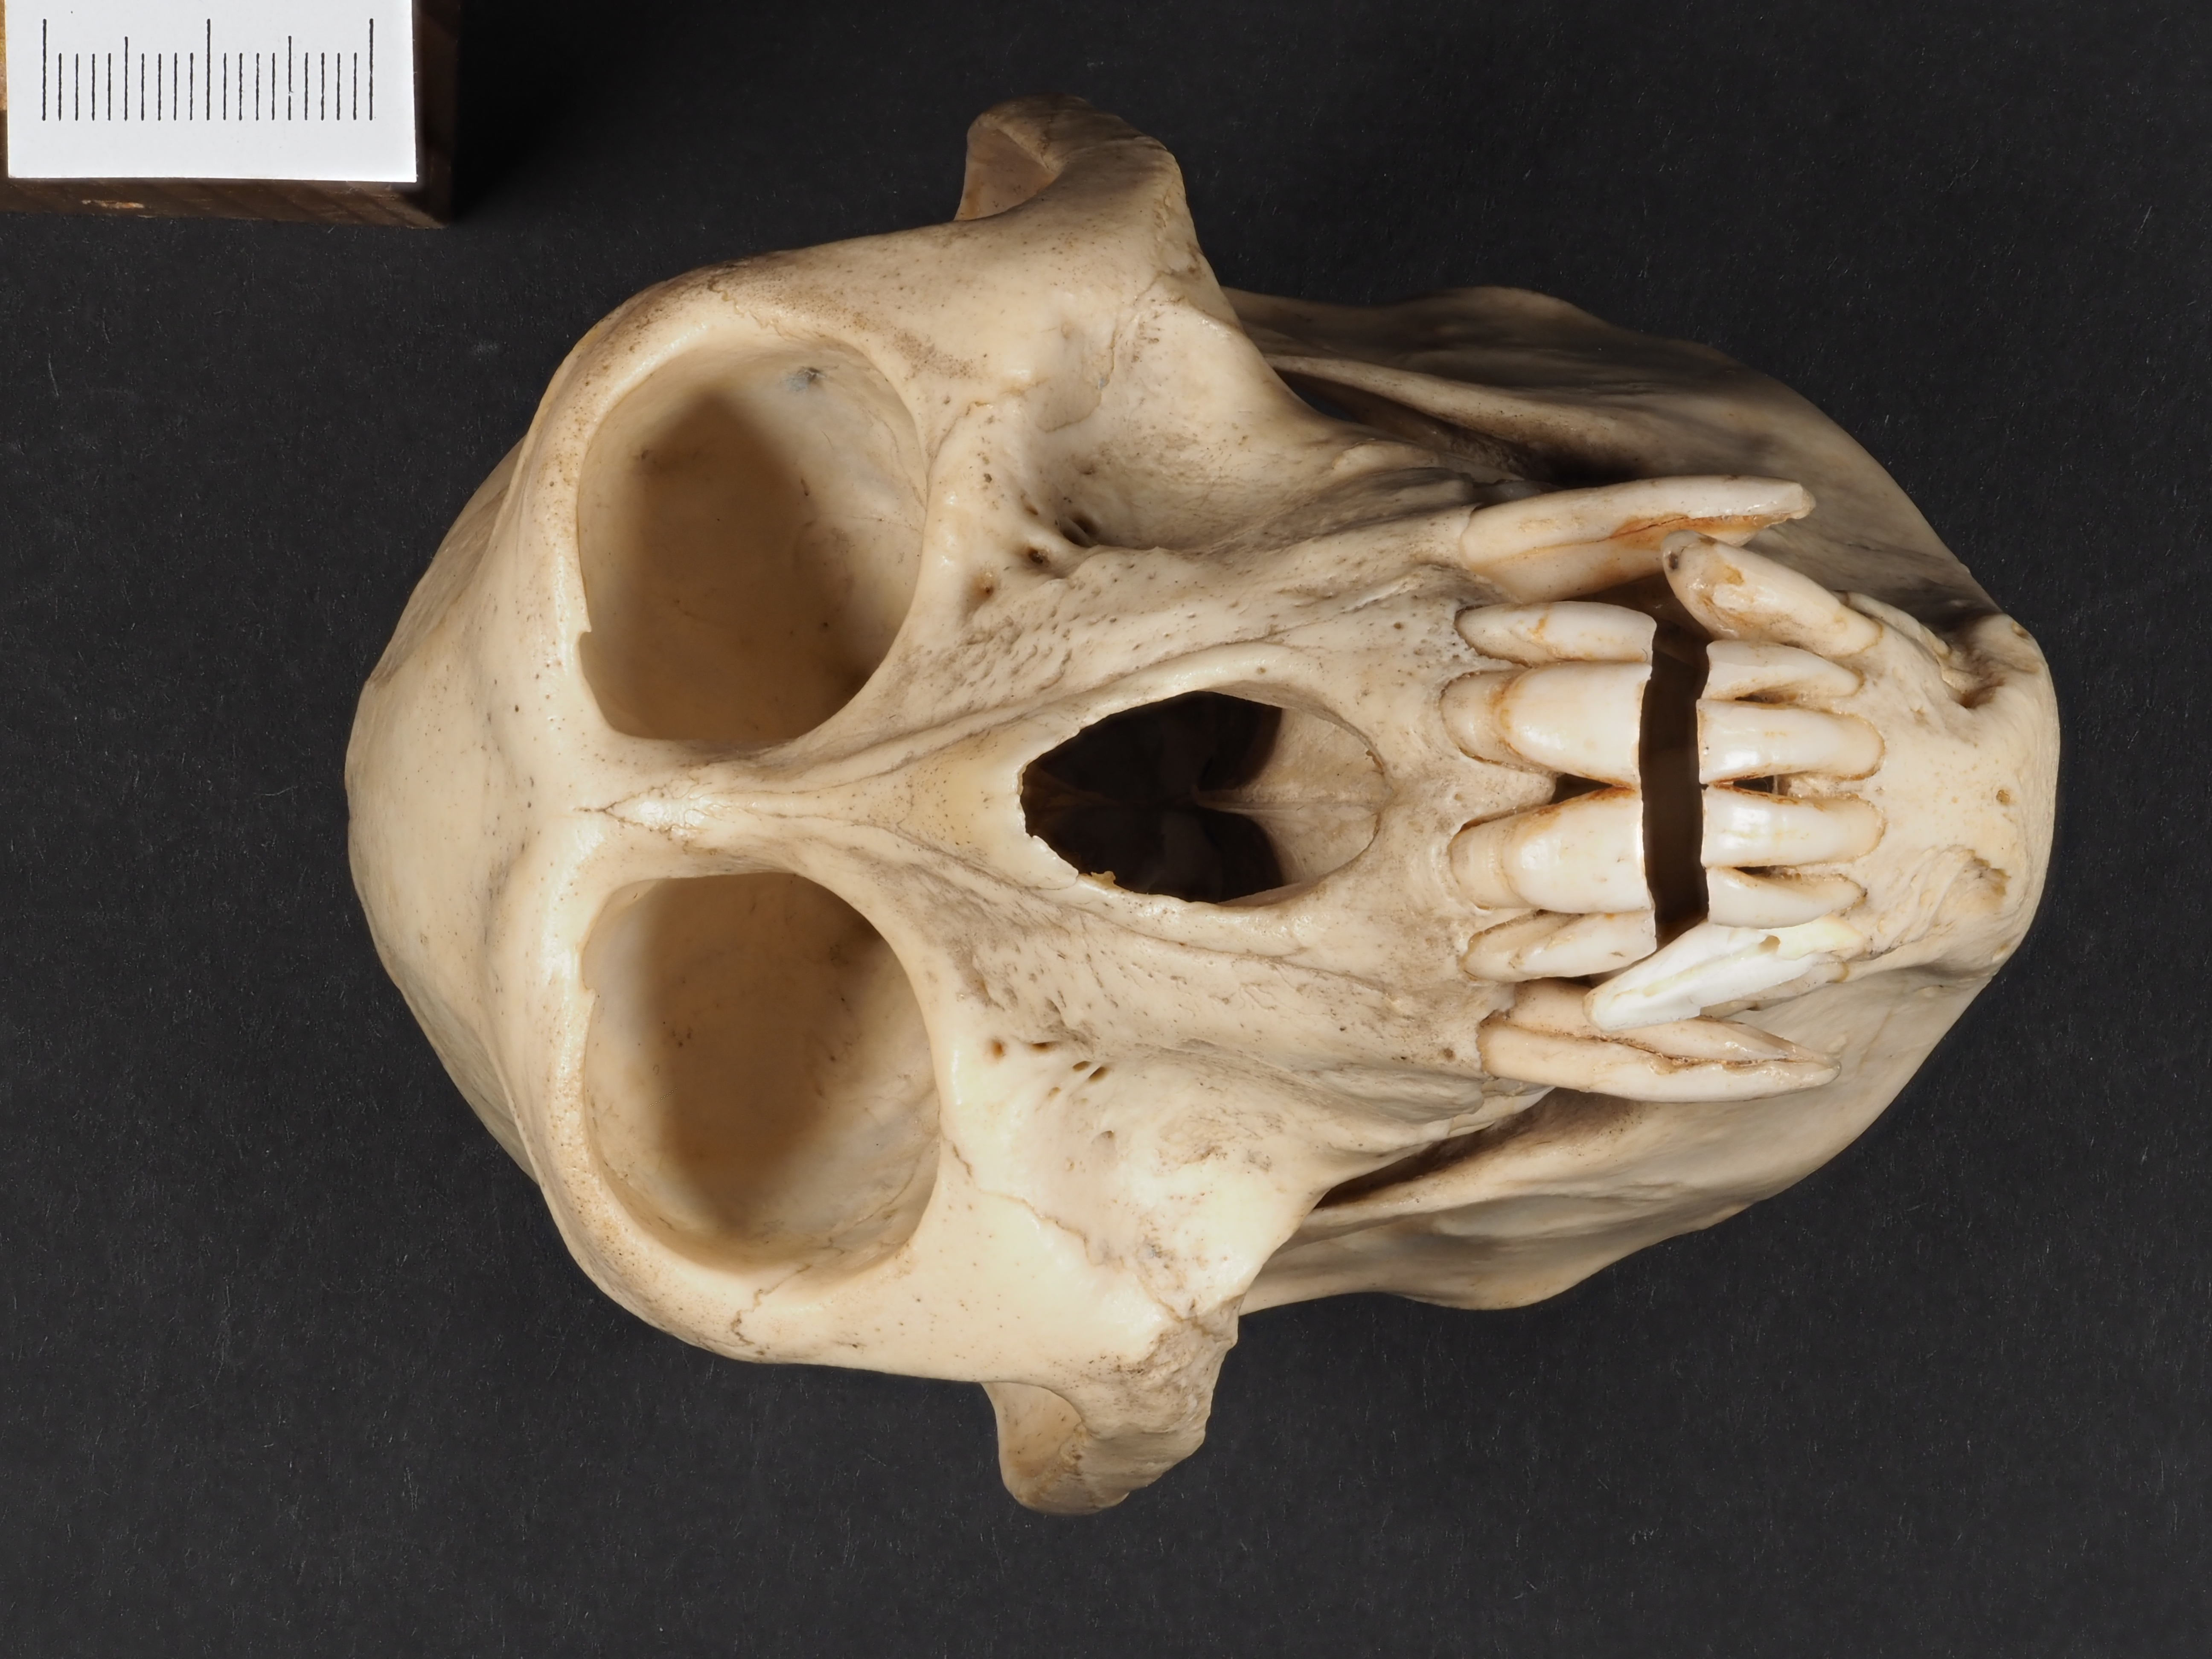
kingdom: Animalia
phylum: Chordata
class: Mammalia
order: Primates
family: Cercopithecidae
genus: Cercopithecus
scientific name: Cercopithecus mitis
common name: Blue monkey
